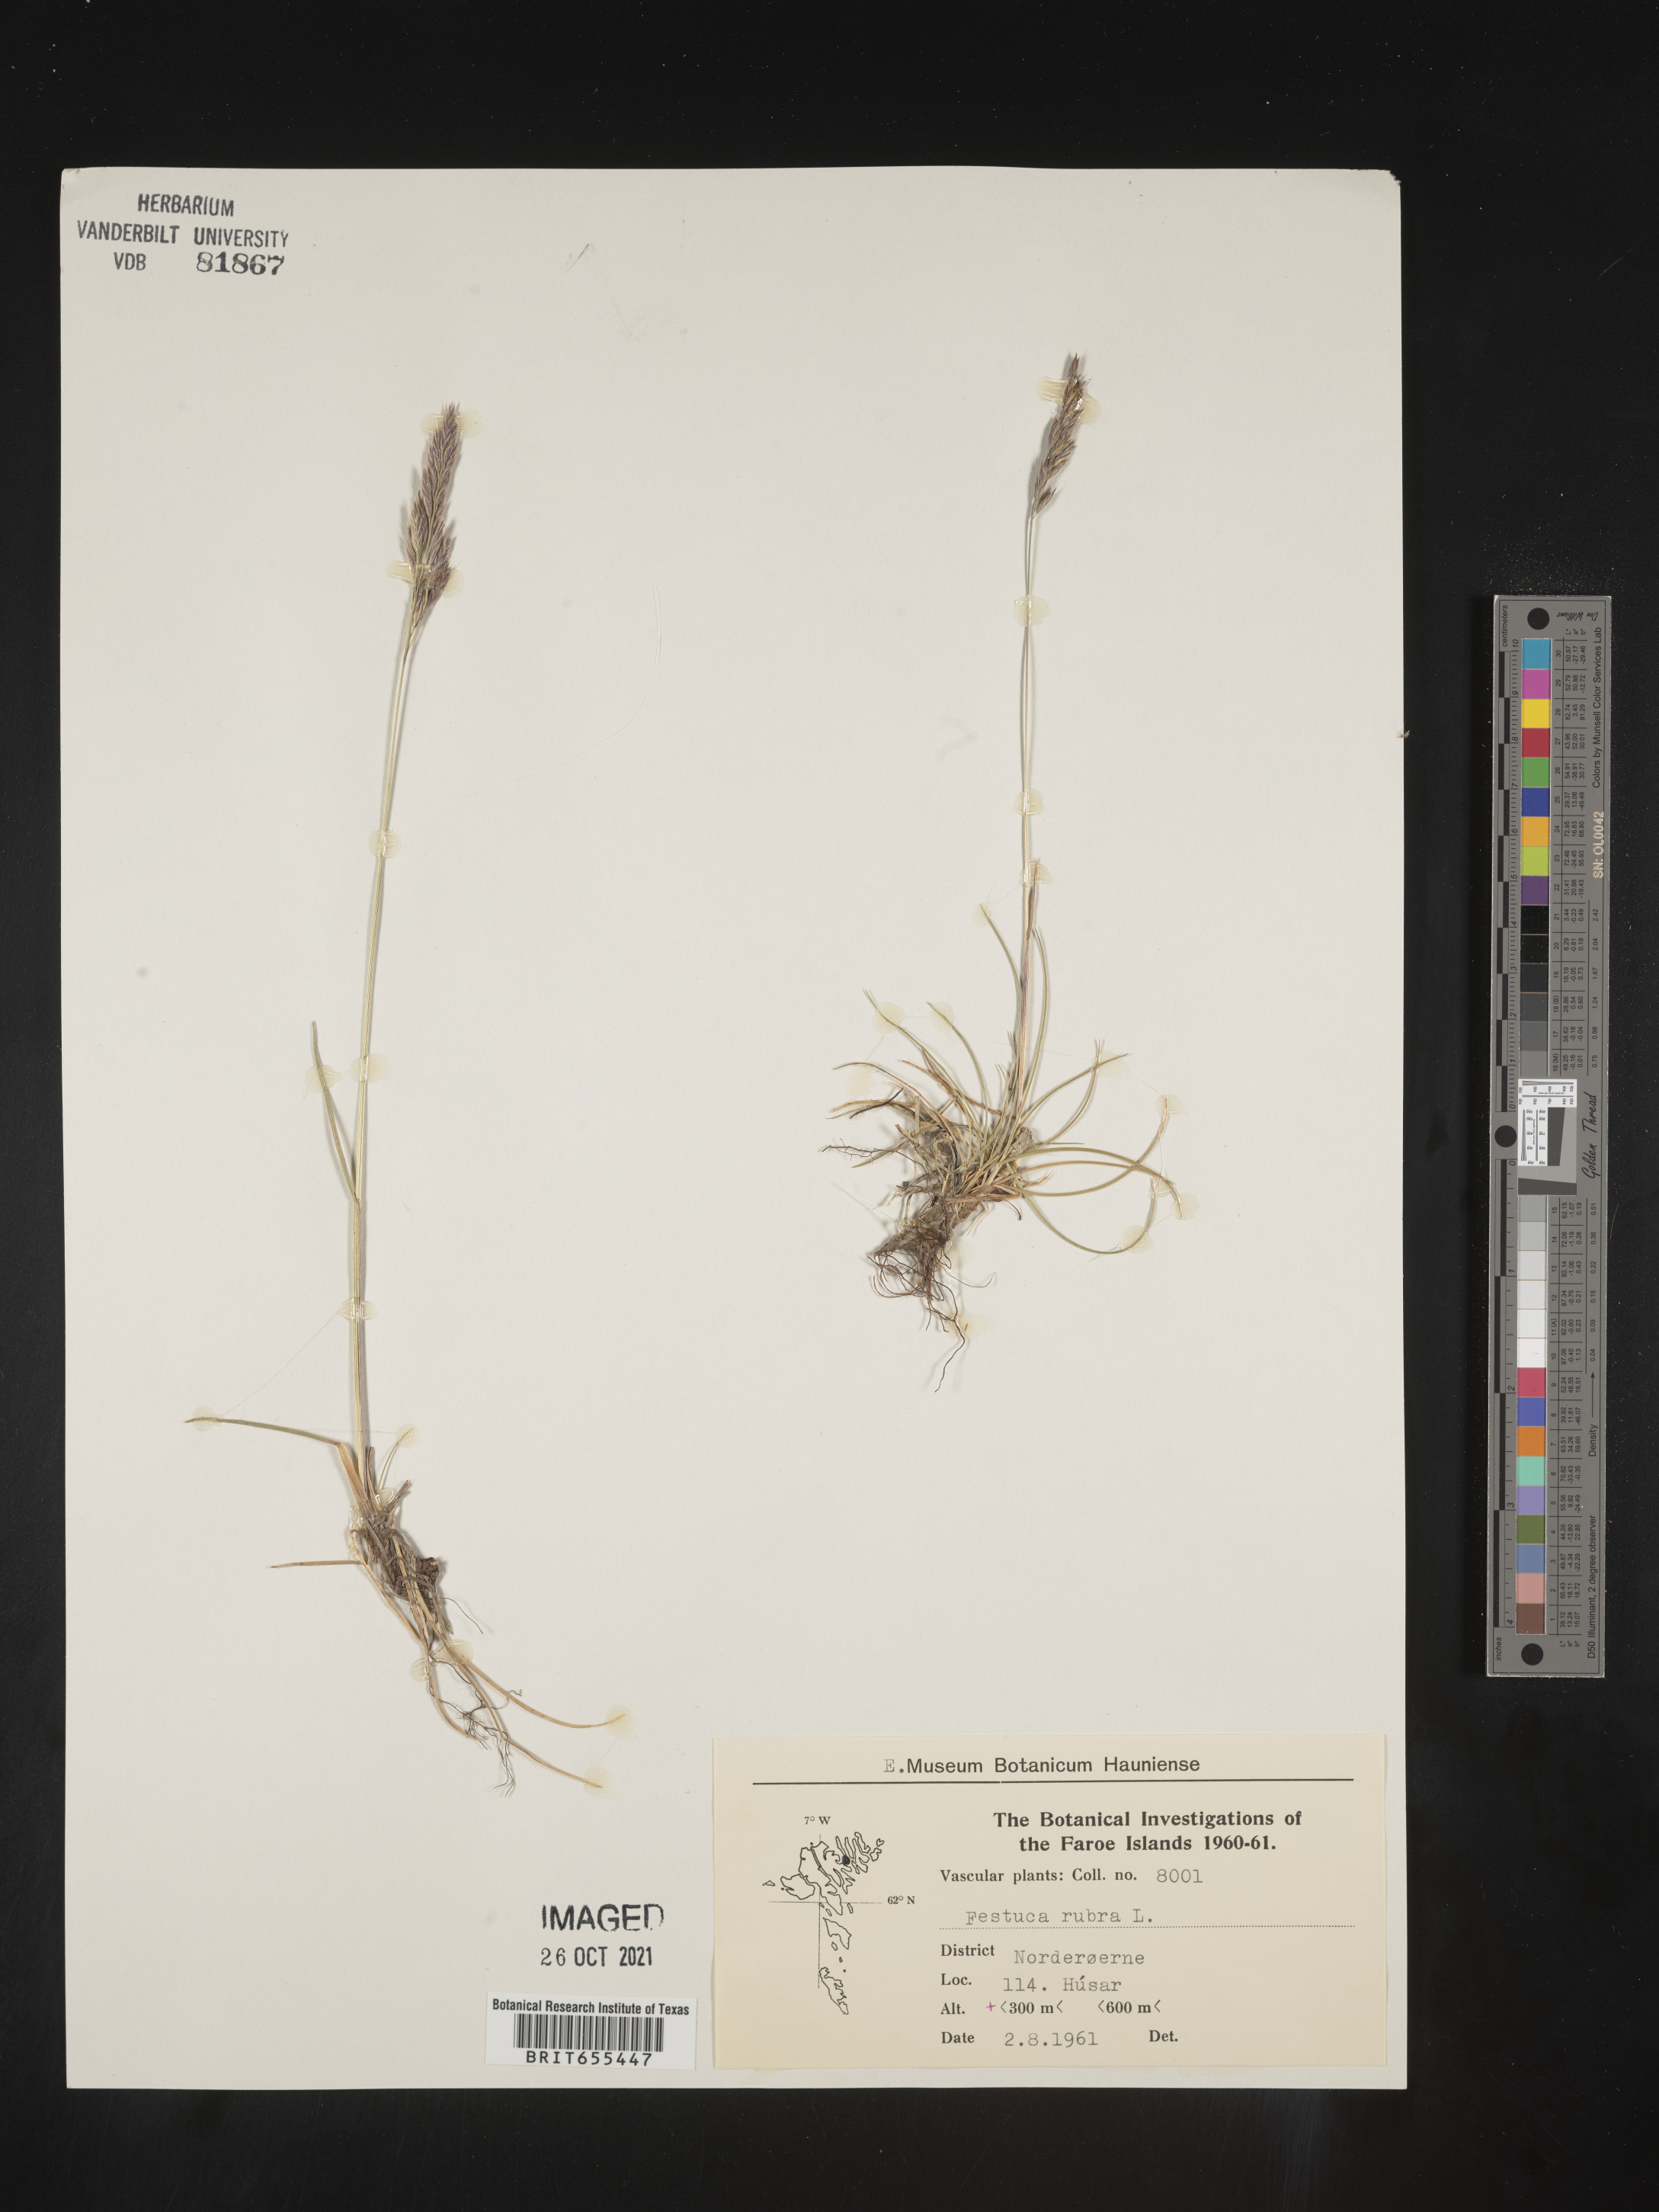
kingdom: Plantae
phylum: Tracheophyta
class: Liliopsida
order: Poales
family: Poaceae
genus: Festuca
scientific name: Festuca
